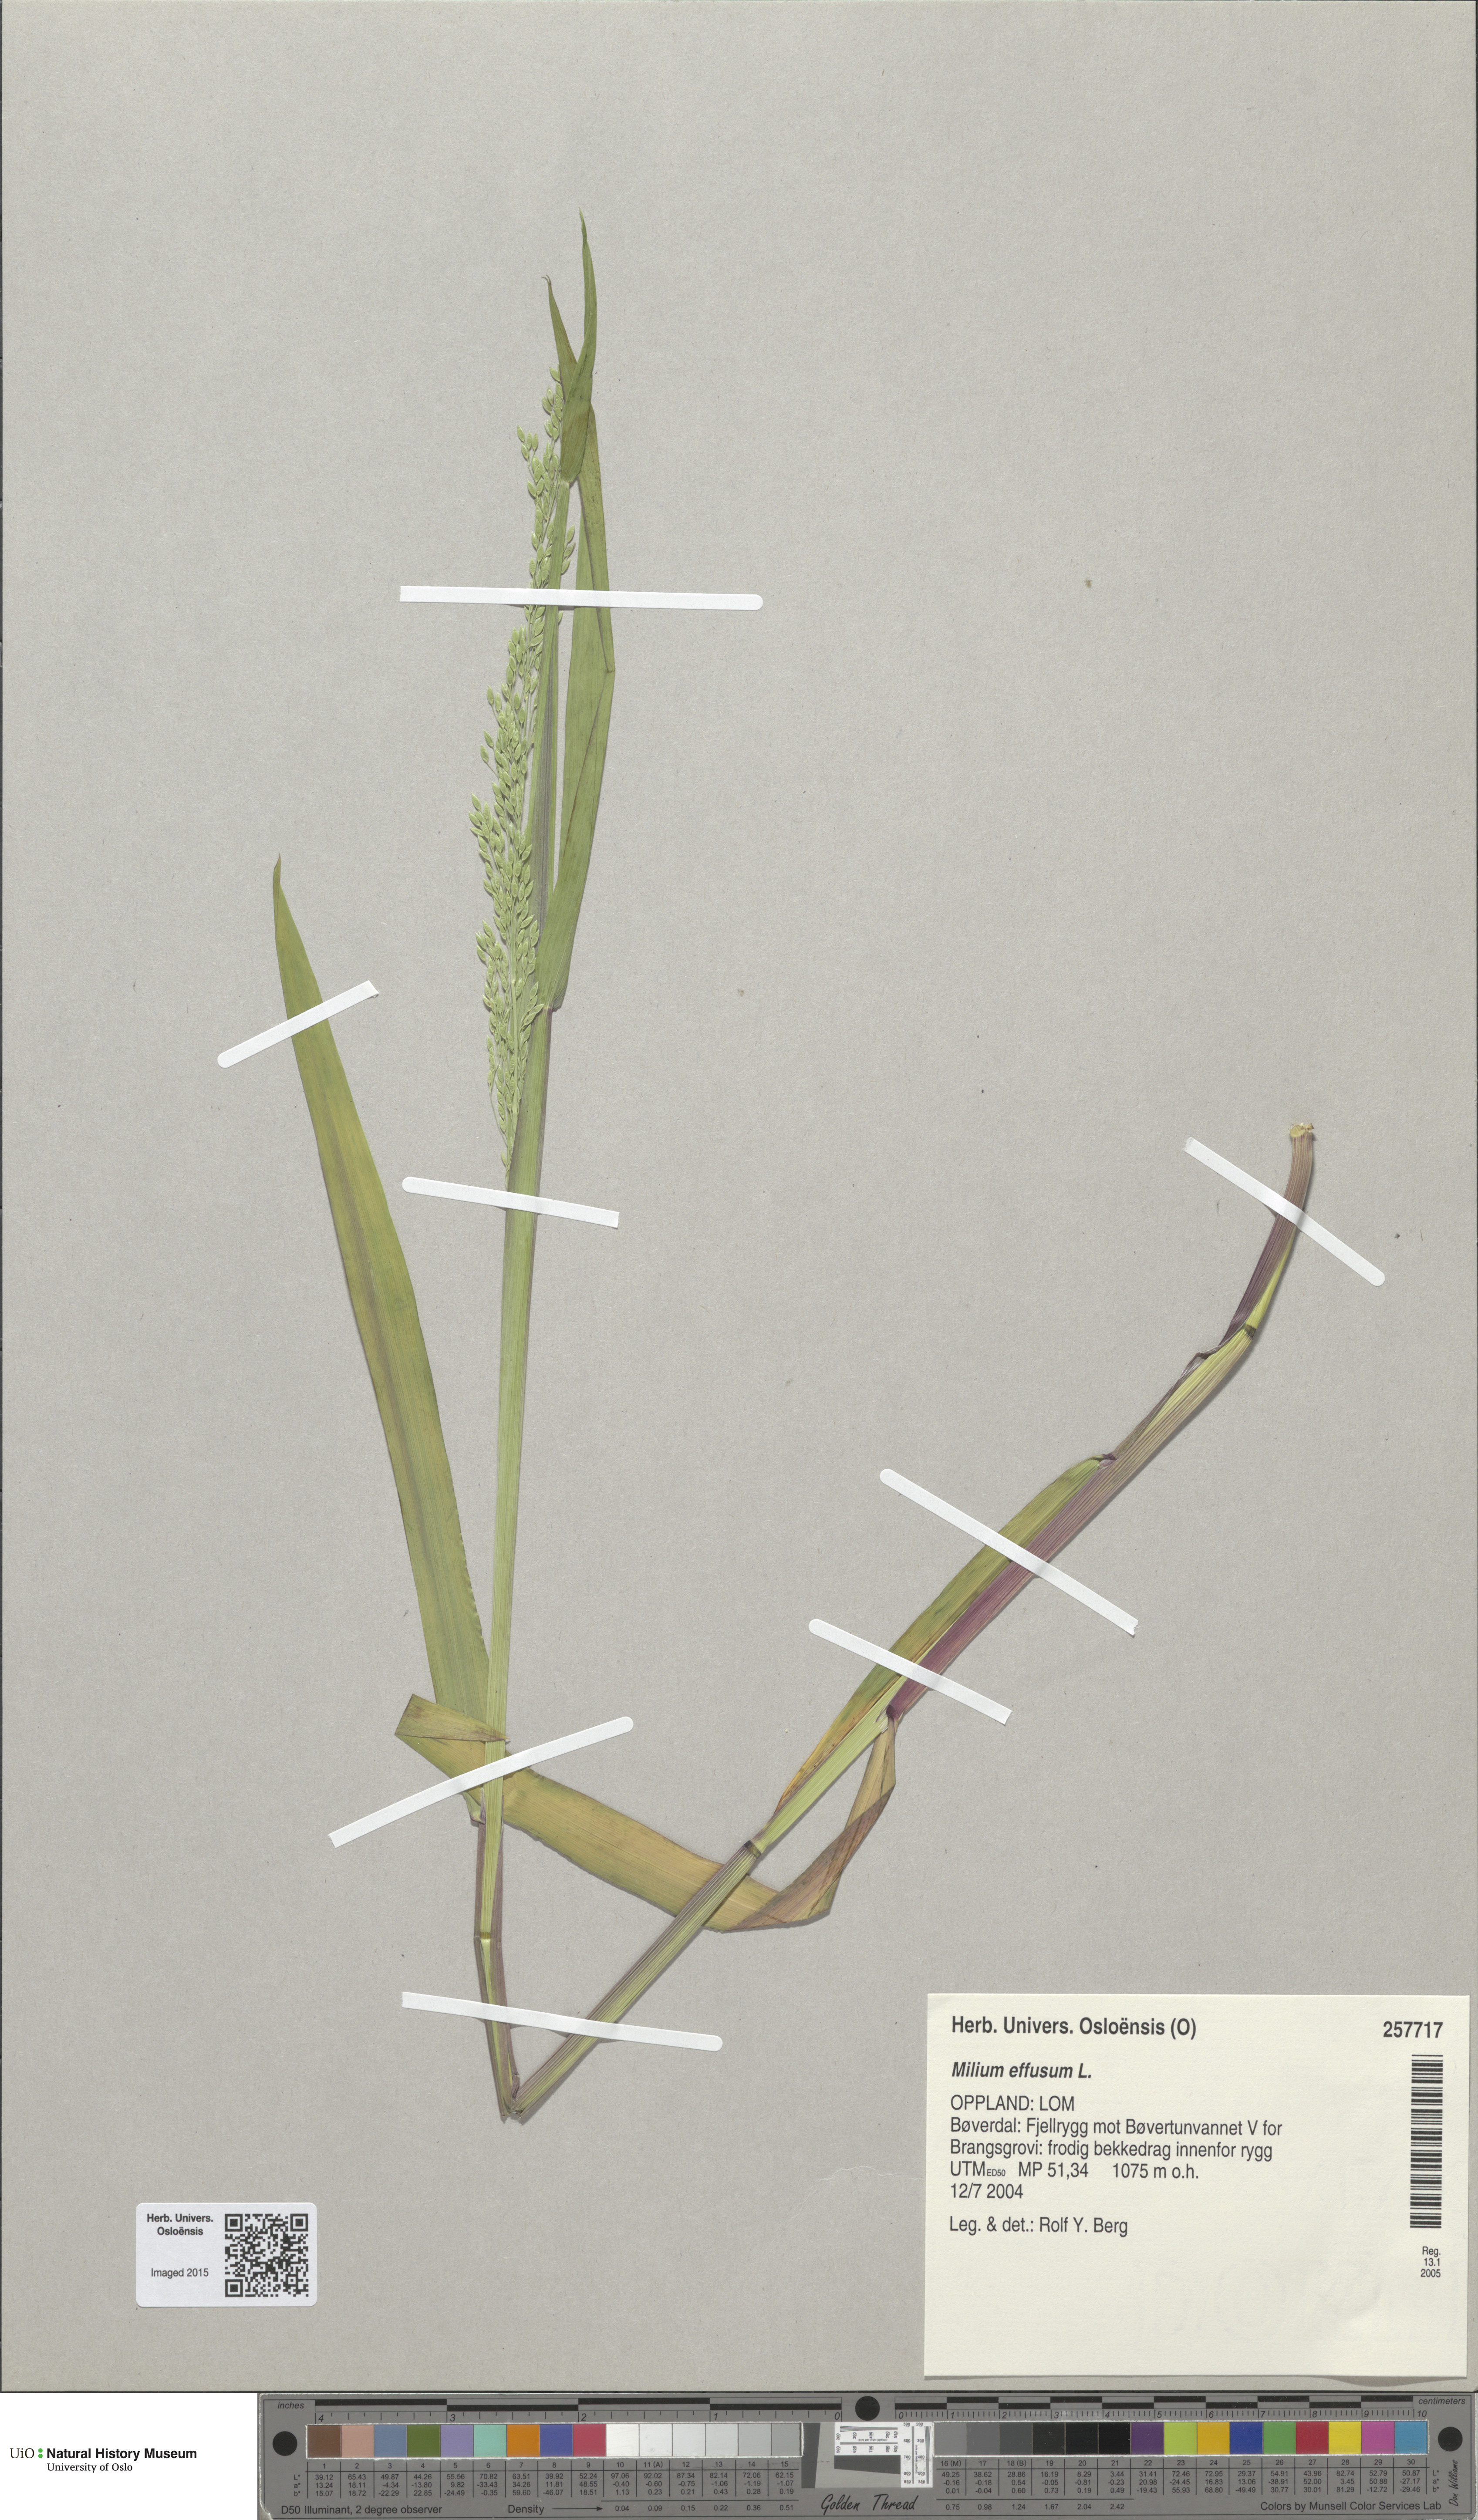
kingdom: Plantae
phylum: Tracheophyta
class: Liliopsida
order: Poales
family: Poaceae
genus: Milium
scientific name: Milium effusum
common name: Wood millet
